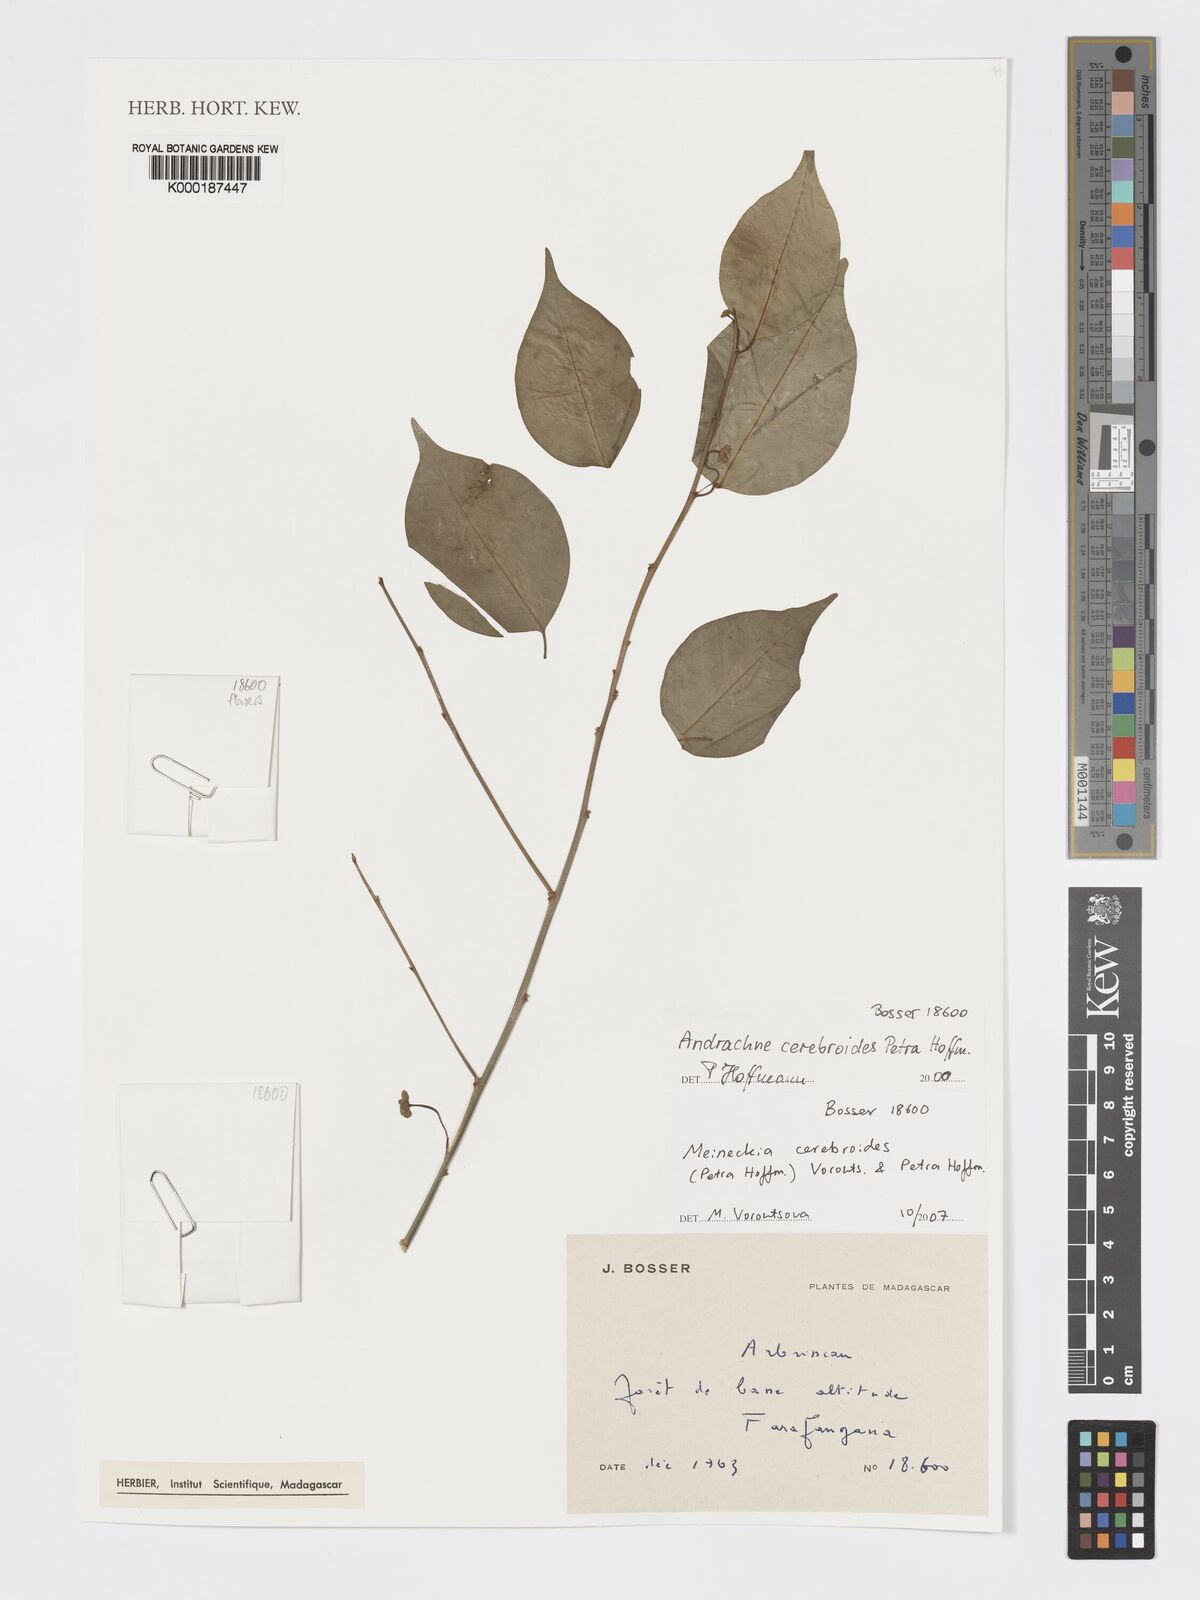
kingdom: Plantae
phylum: Tracheophyta
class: Magnoliopsida
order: Malpighiales
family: Phyllanthaceae
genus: Meineckia
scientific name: Meineckia cerebroides
